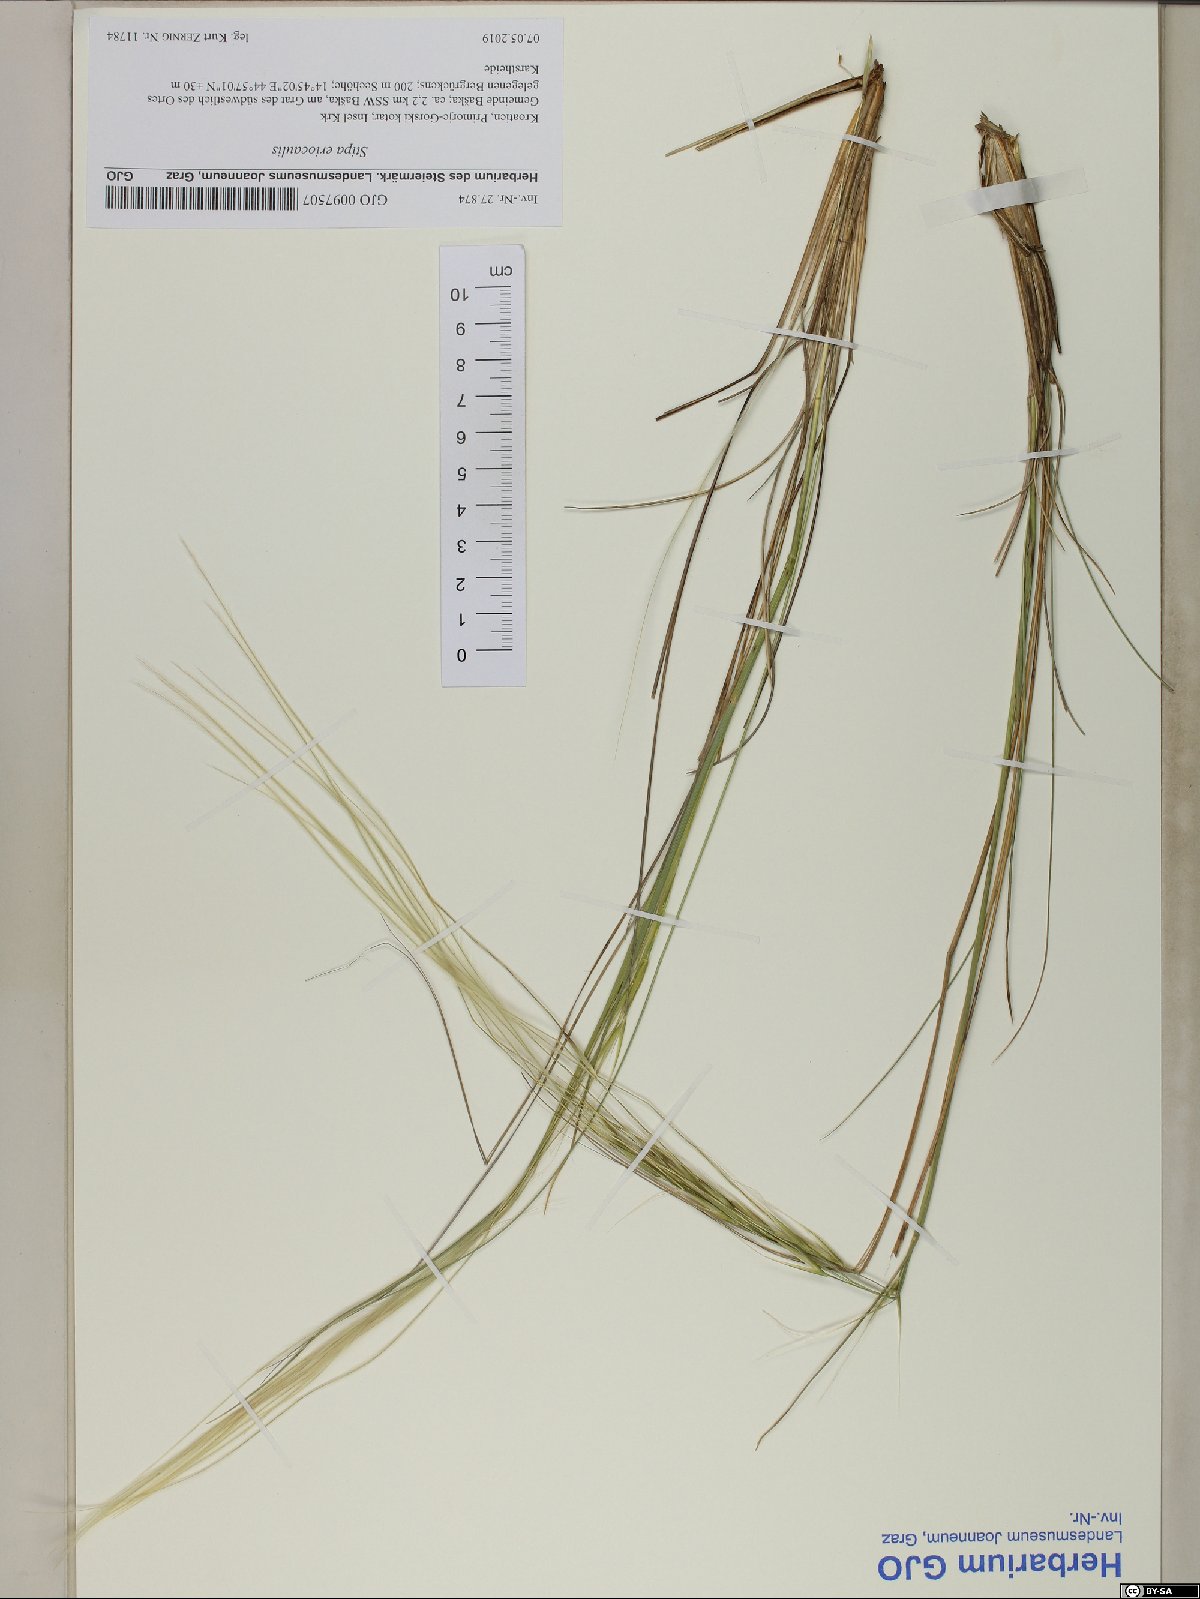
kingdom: Plantae
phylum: Tracheophyta
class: Liliopsida
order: Poales
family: Poaceae
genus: Stipa
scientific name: Stipa pennata
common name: European feather grass
